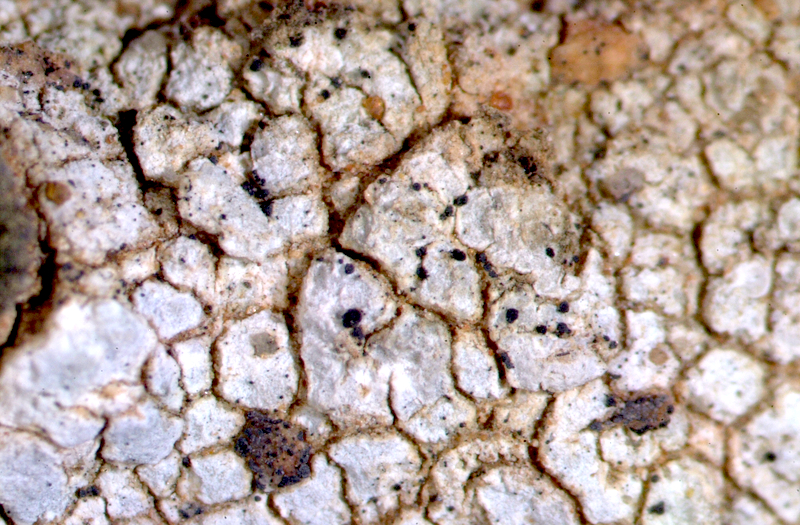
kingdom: Fungi
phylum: Ascomycota
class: Lecanoromycetes
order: Ostropales
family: Graphidaceae
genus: Diploschistes
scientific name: Diploschistes
